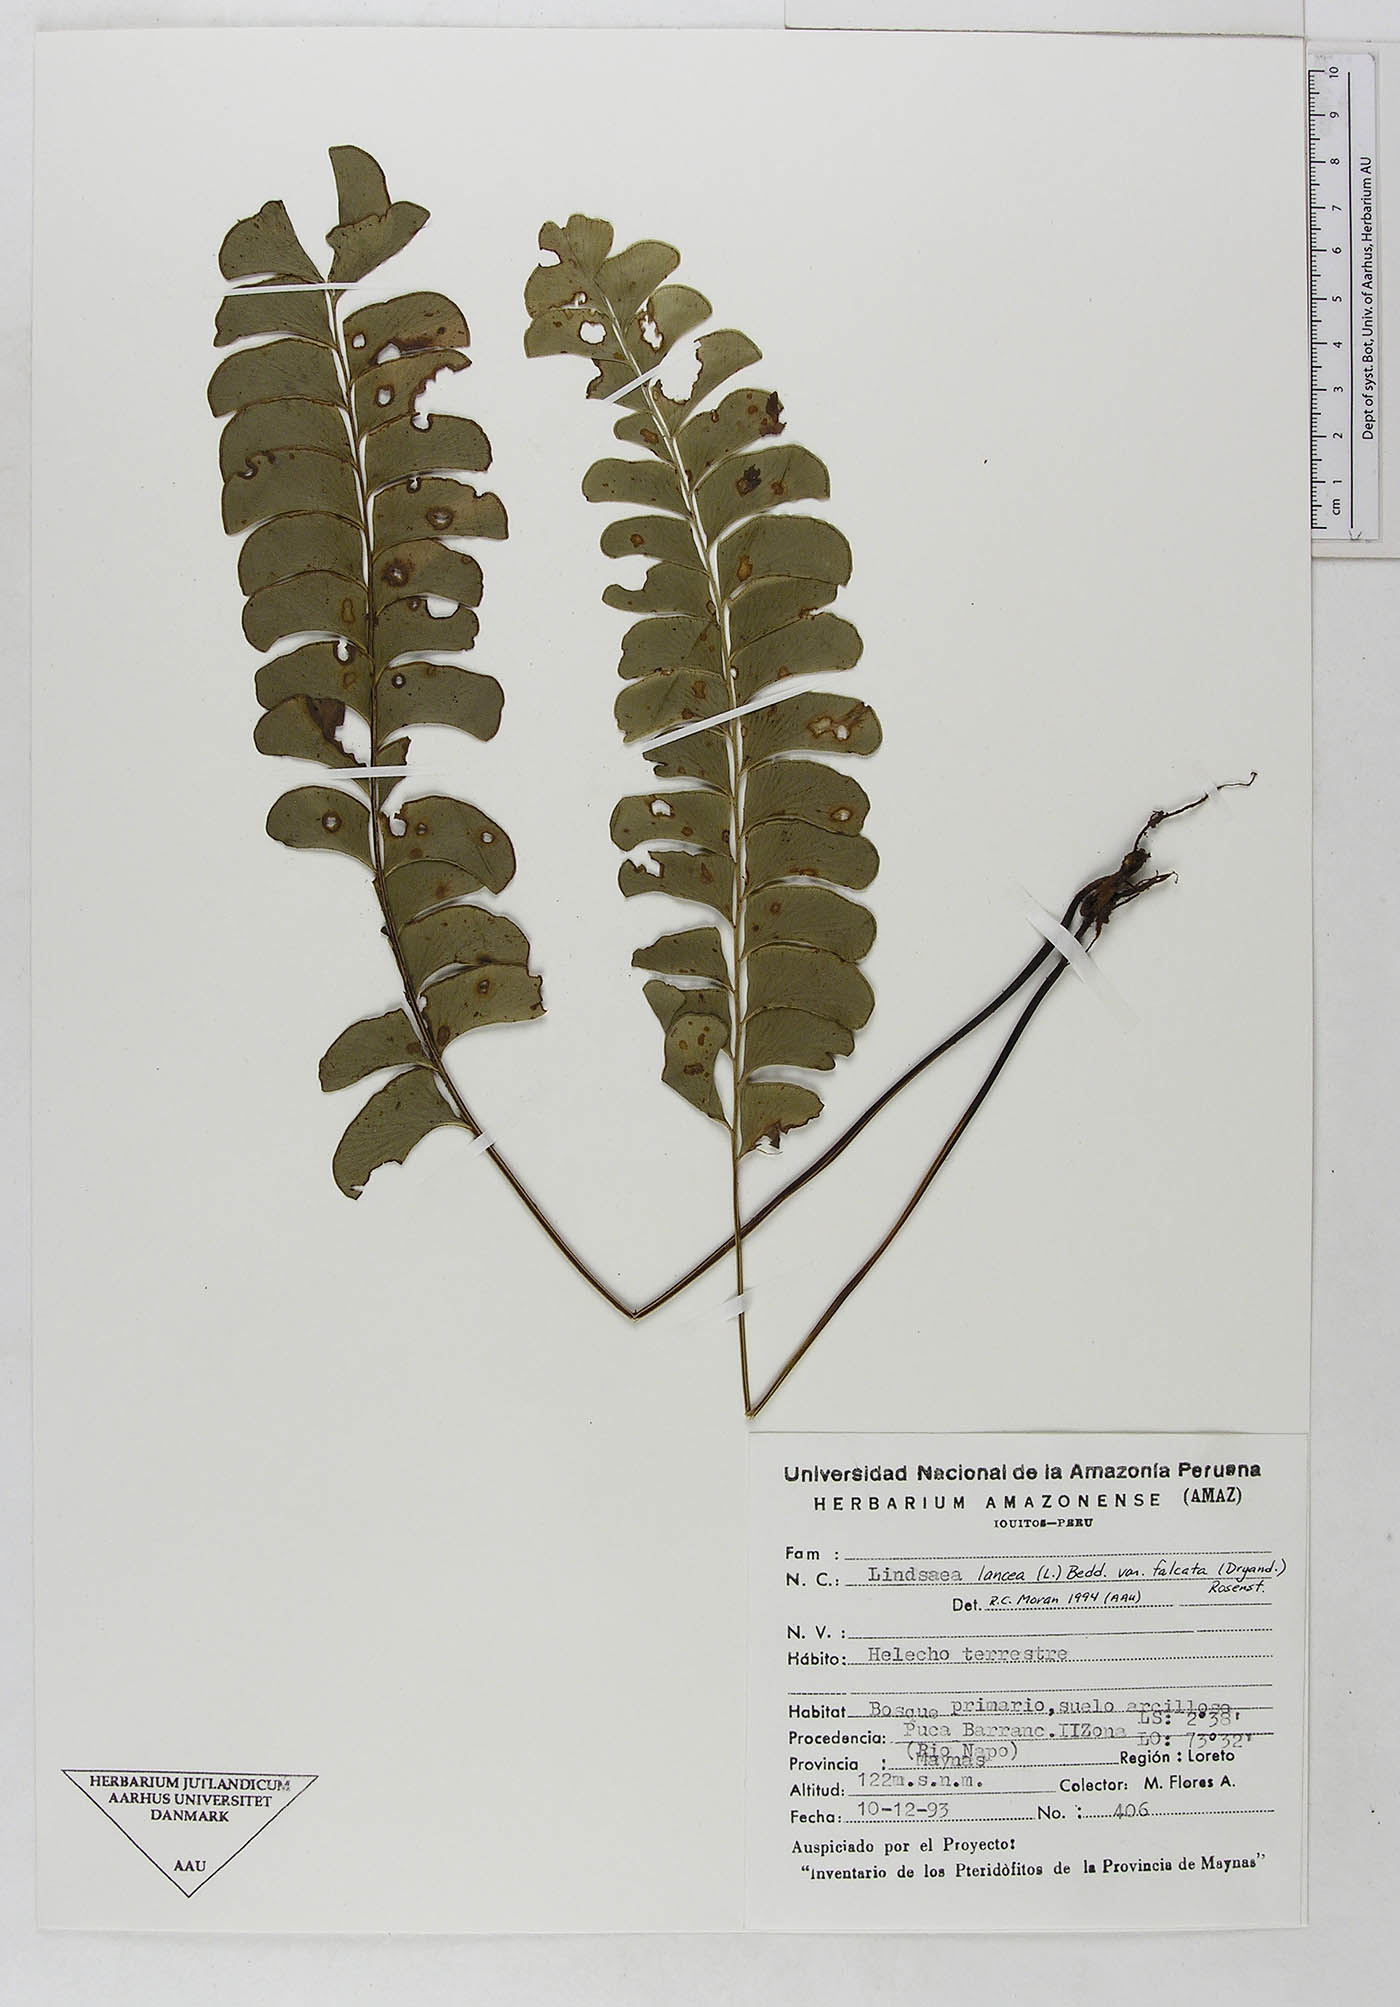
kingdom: Plantae
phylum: Tracheophyta
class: Polypodiopsida
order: Polypodiales
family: Dennstaedtiaceae
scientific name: Dennstaedtiaceae
